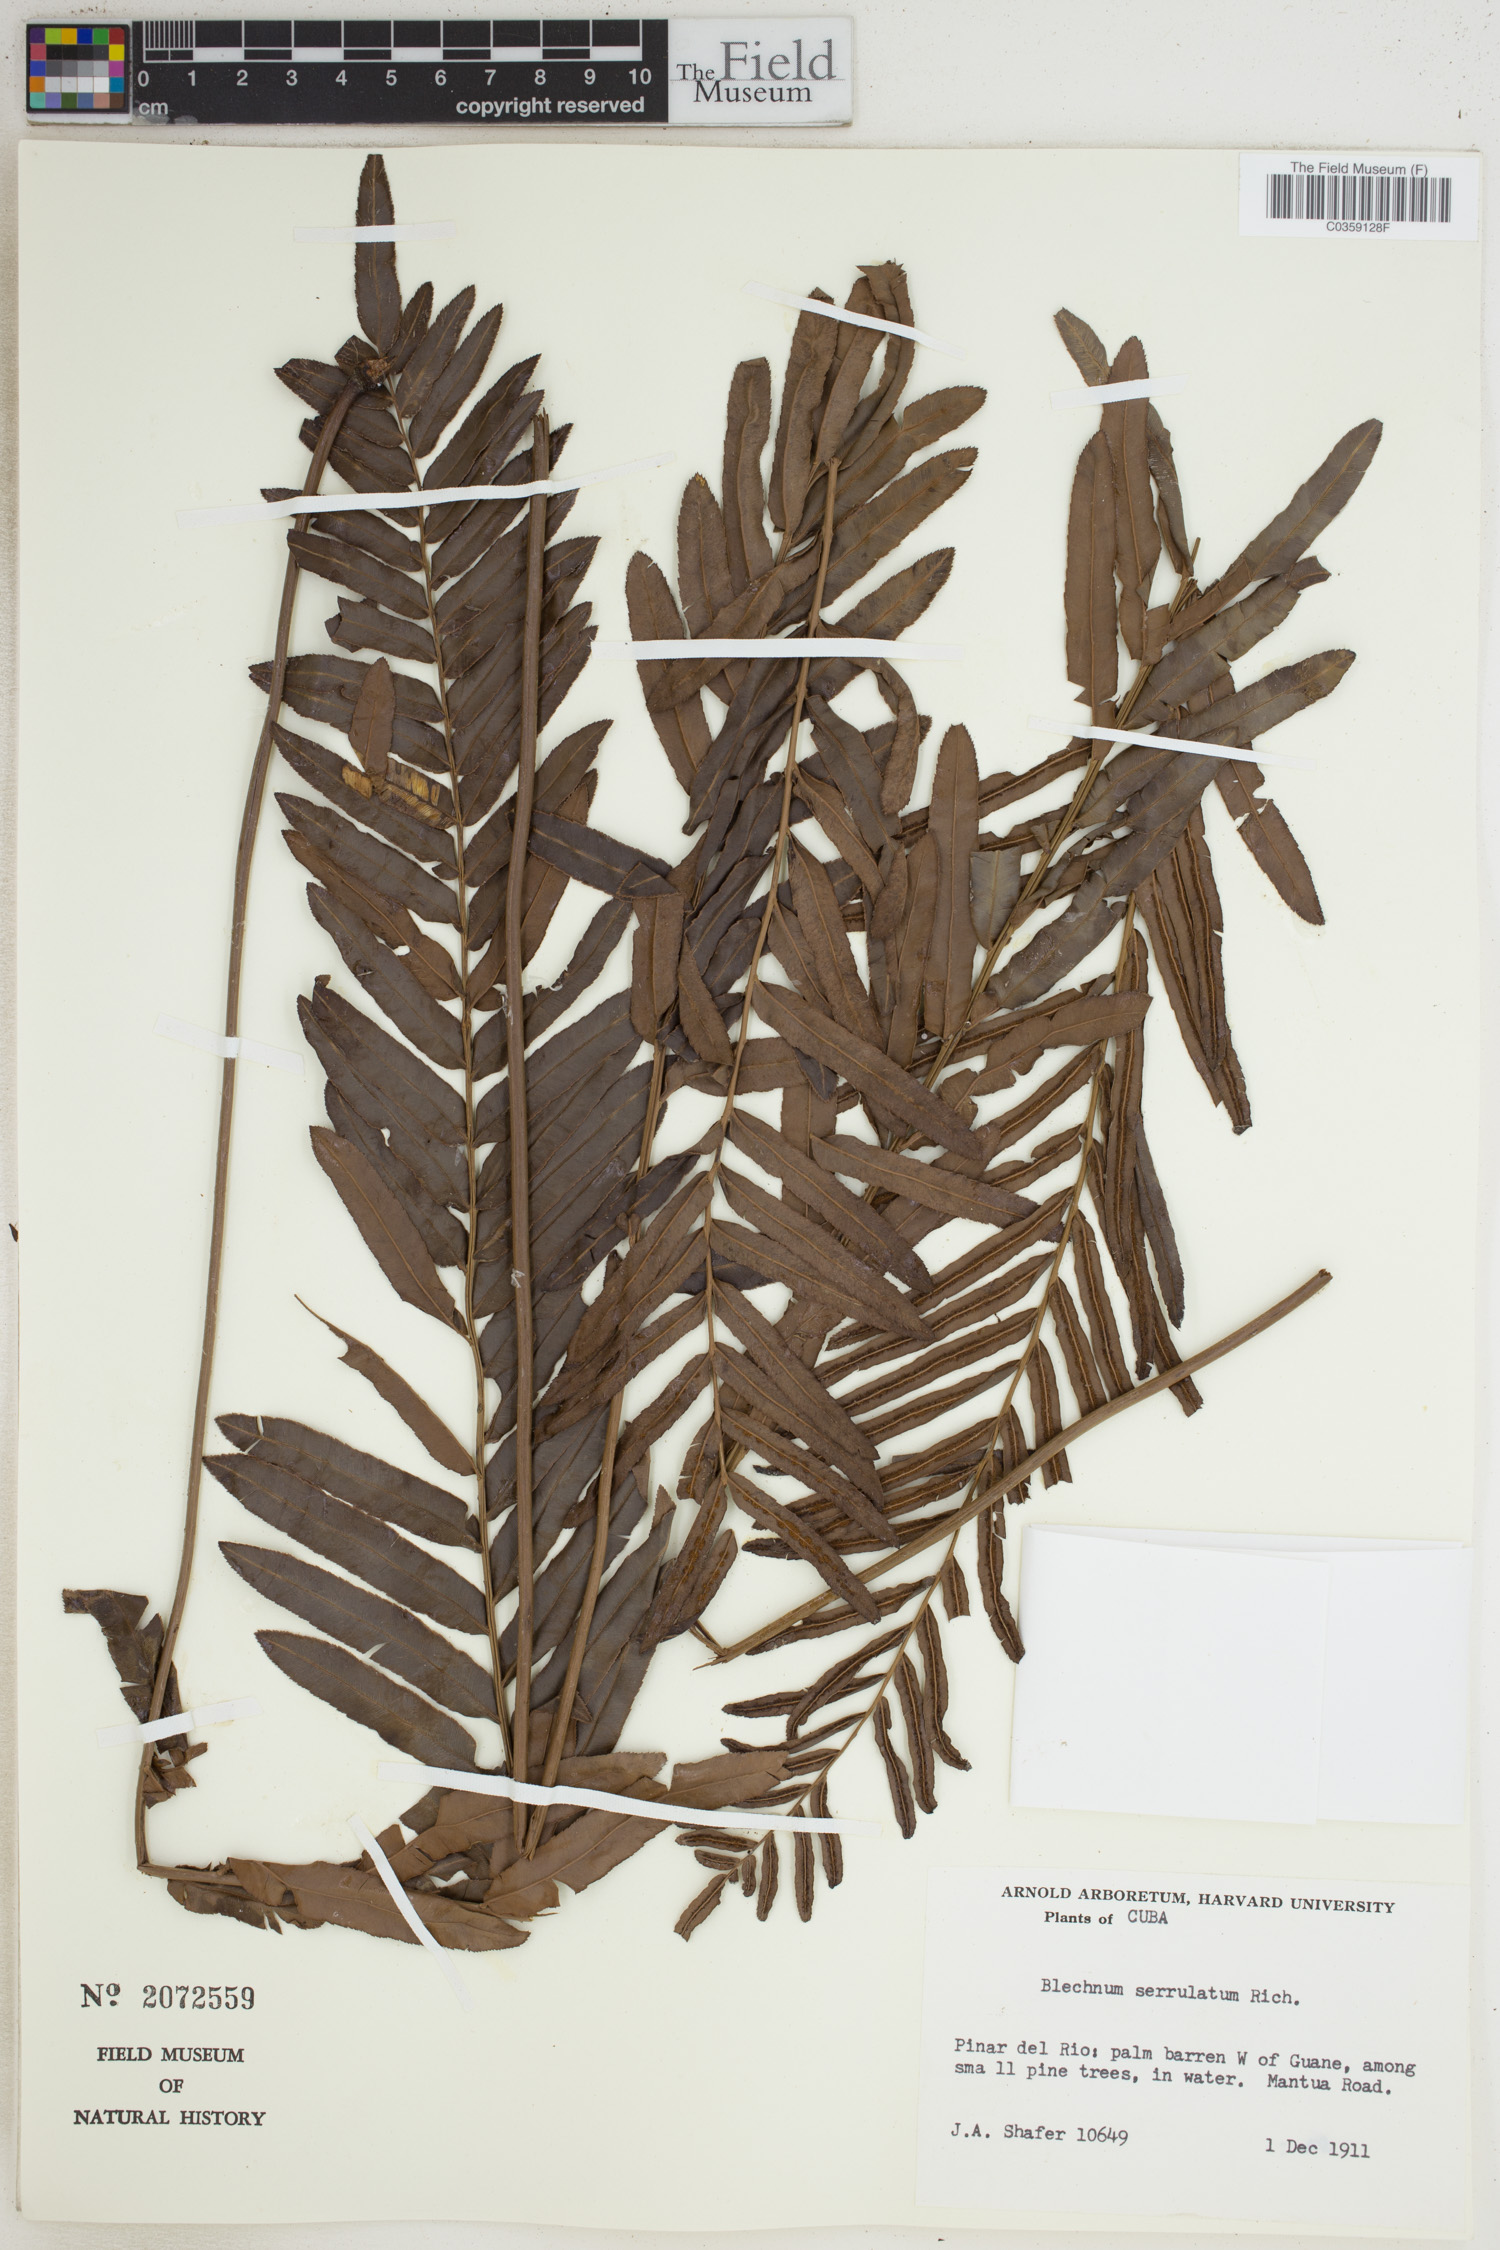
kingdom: Plantae
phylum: Tracheophyta
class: Polypodiopsida
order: Polypodiales
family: Blechnaceae
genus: Telmatoblechnum
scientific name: Telmatoblechnum serrulatum
